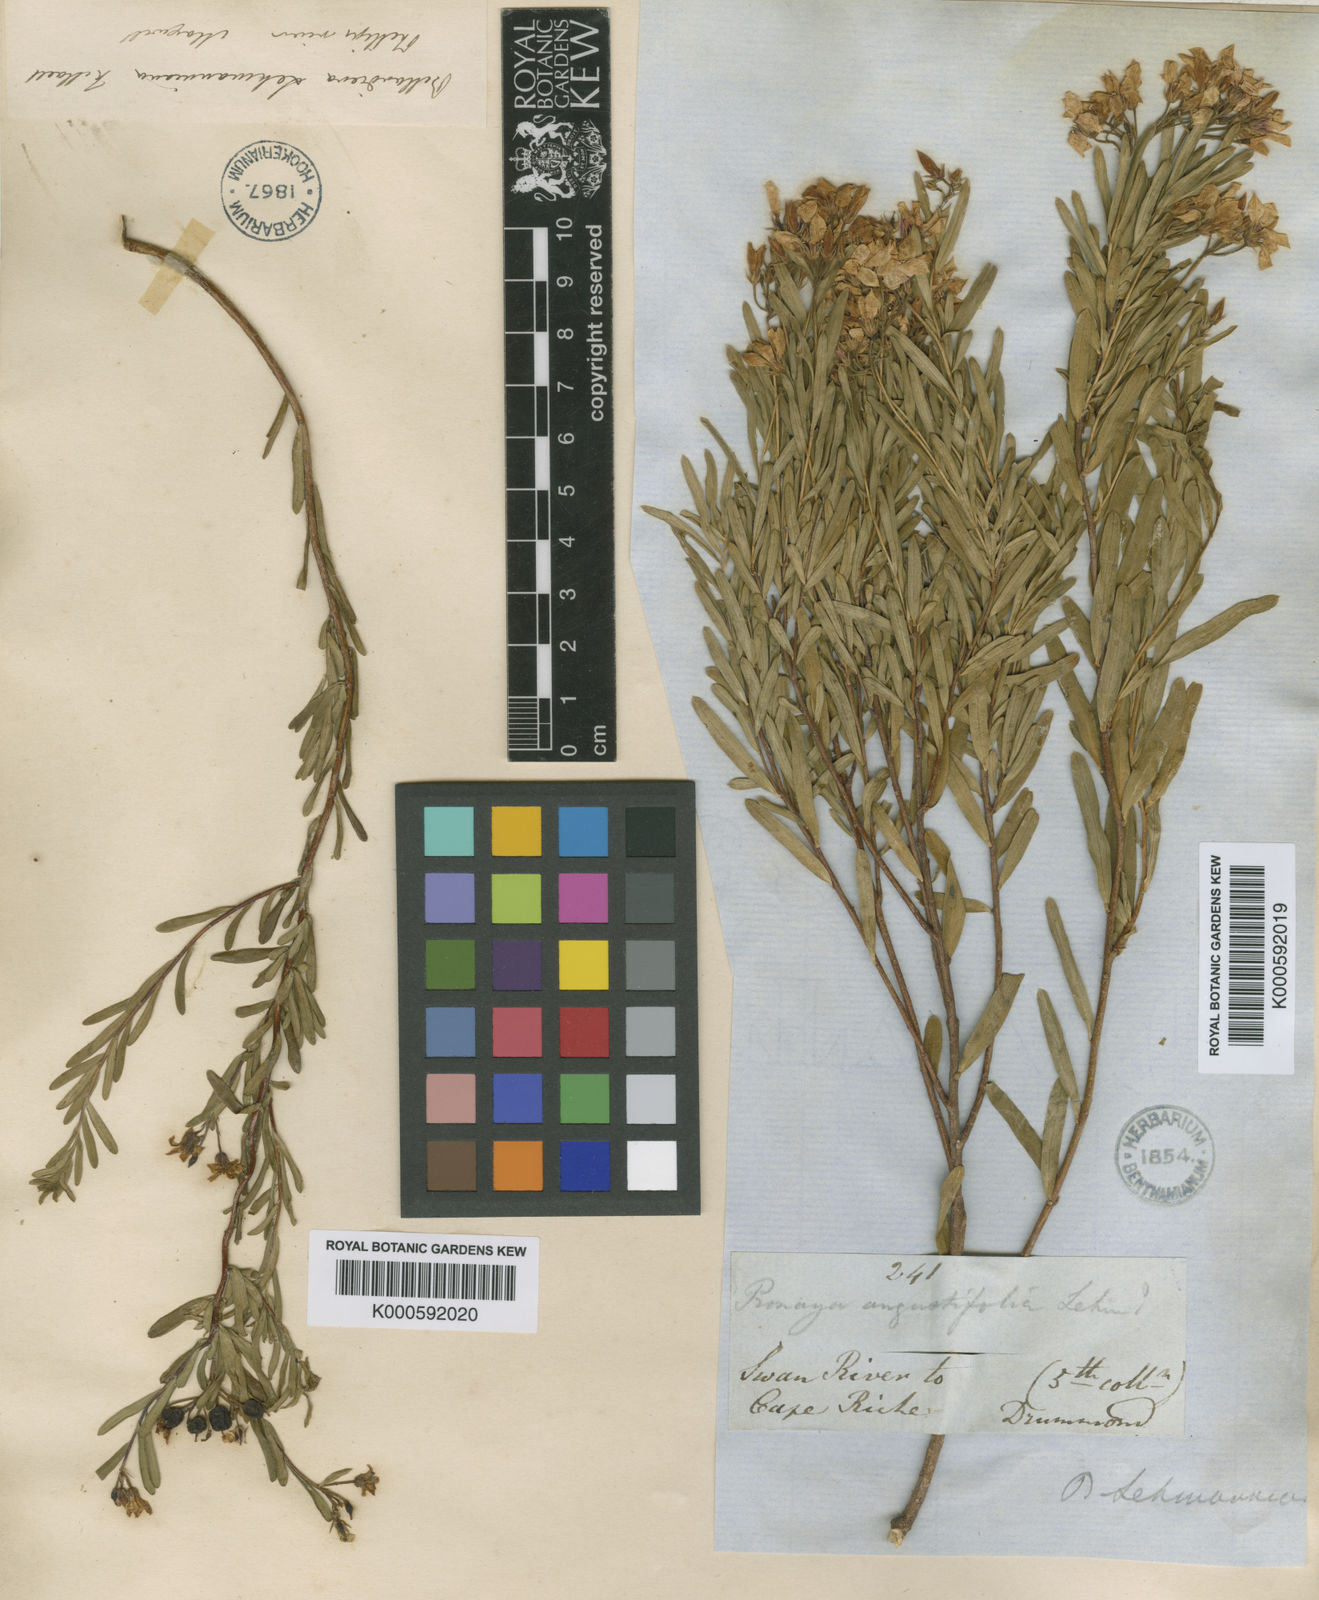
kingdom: Plantae
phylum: Tracheophyta
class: Magnoliopsida
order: Apiales
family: Pittosporaceae
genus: Billardiera
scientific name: Billardiera lehmanniana
